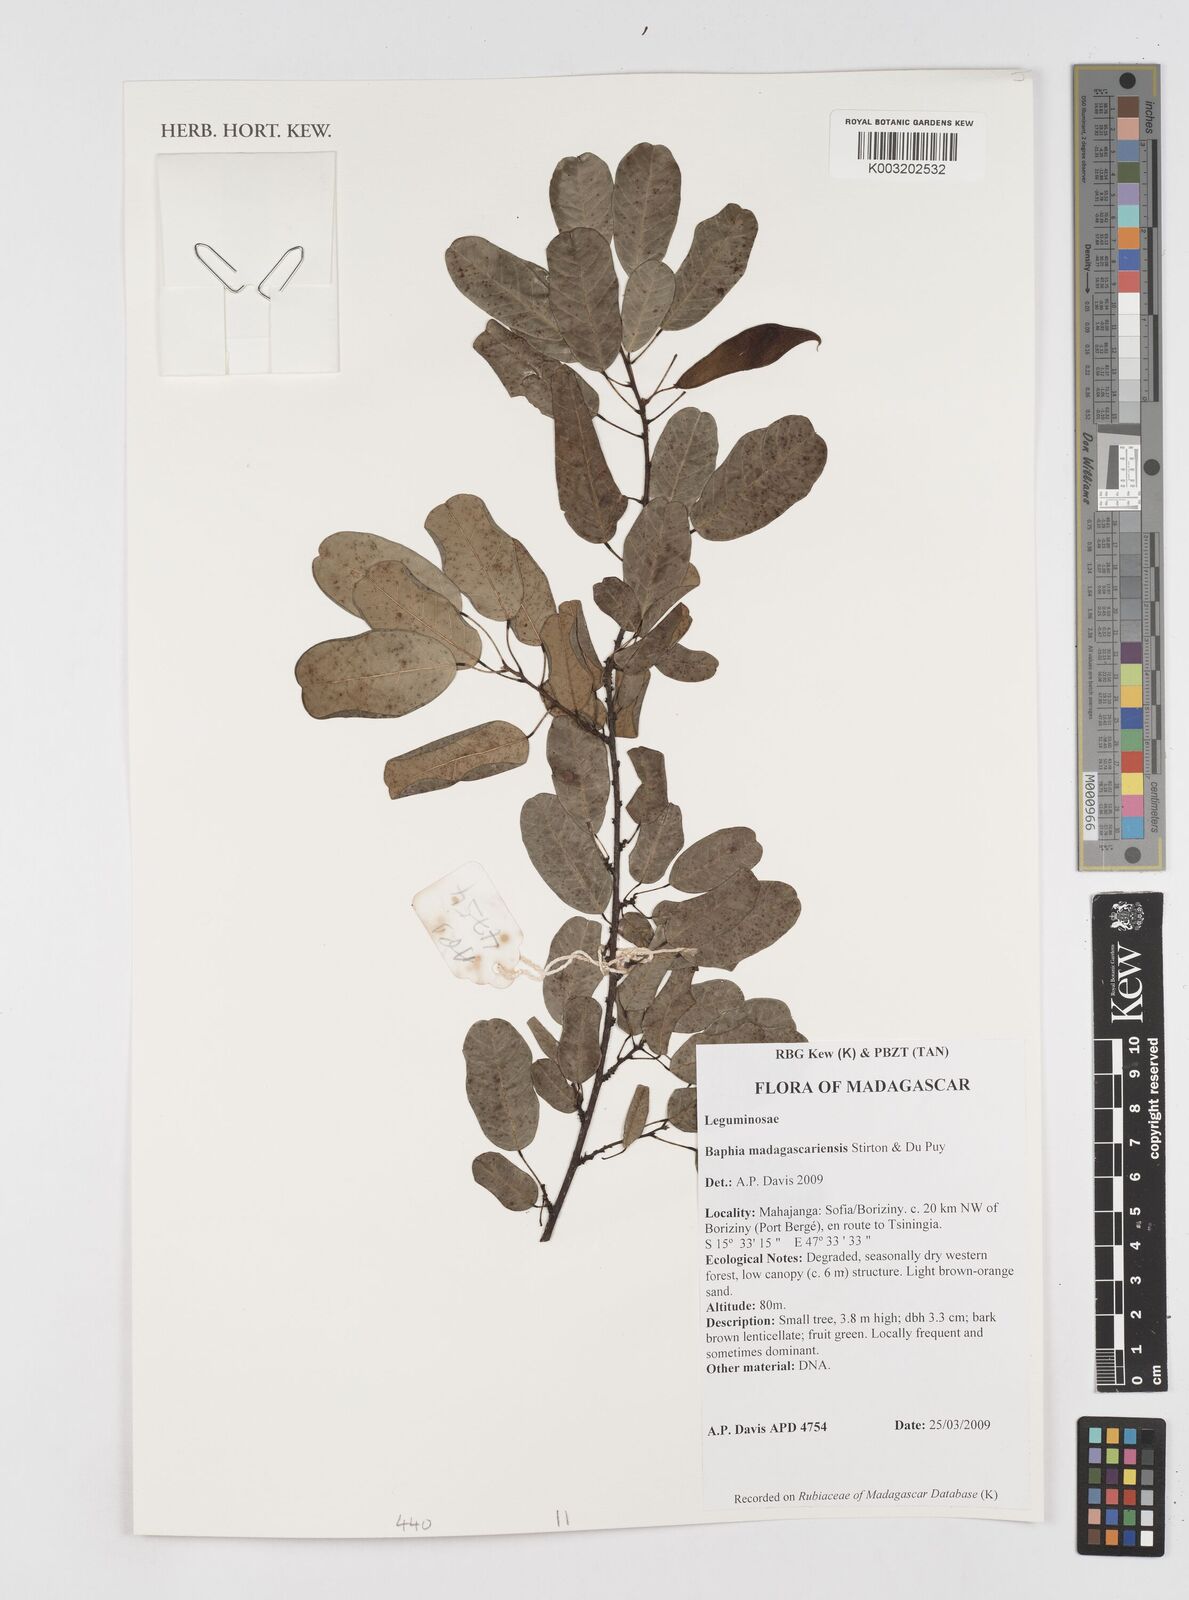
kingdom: Plantae
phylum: Tracheophyta
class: Magnoliopsida
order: Fabales
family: Fabaceae
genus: Baphia
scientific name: Baphia madagascariensis
